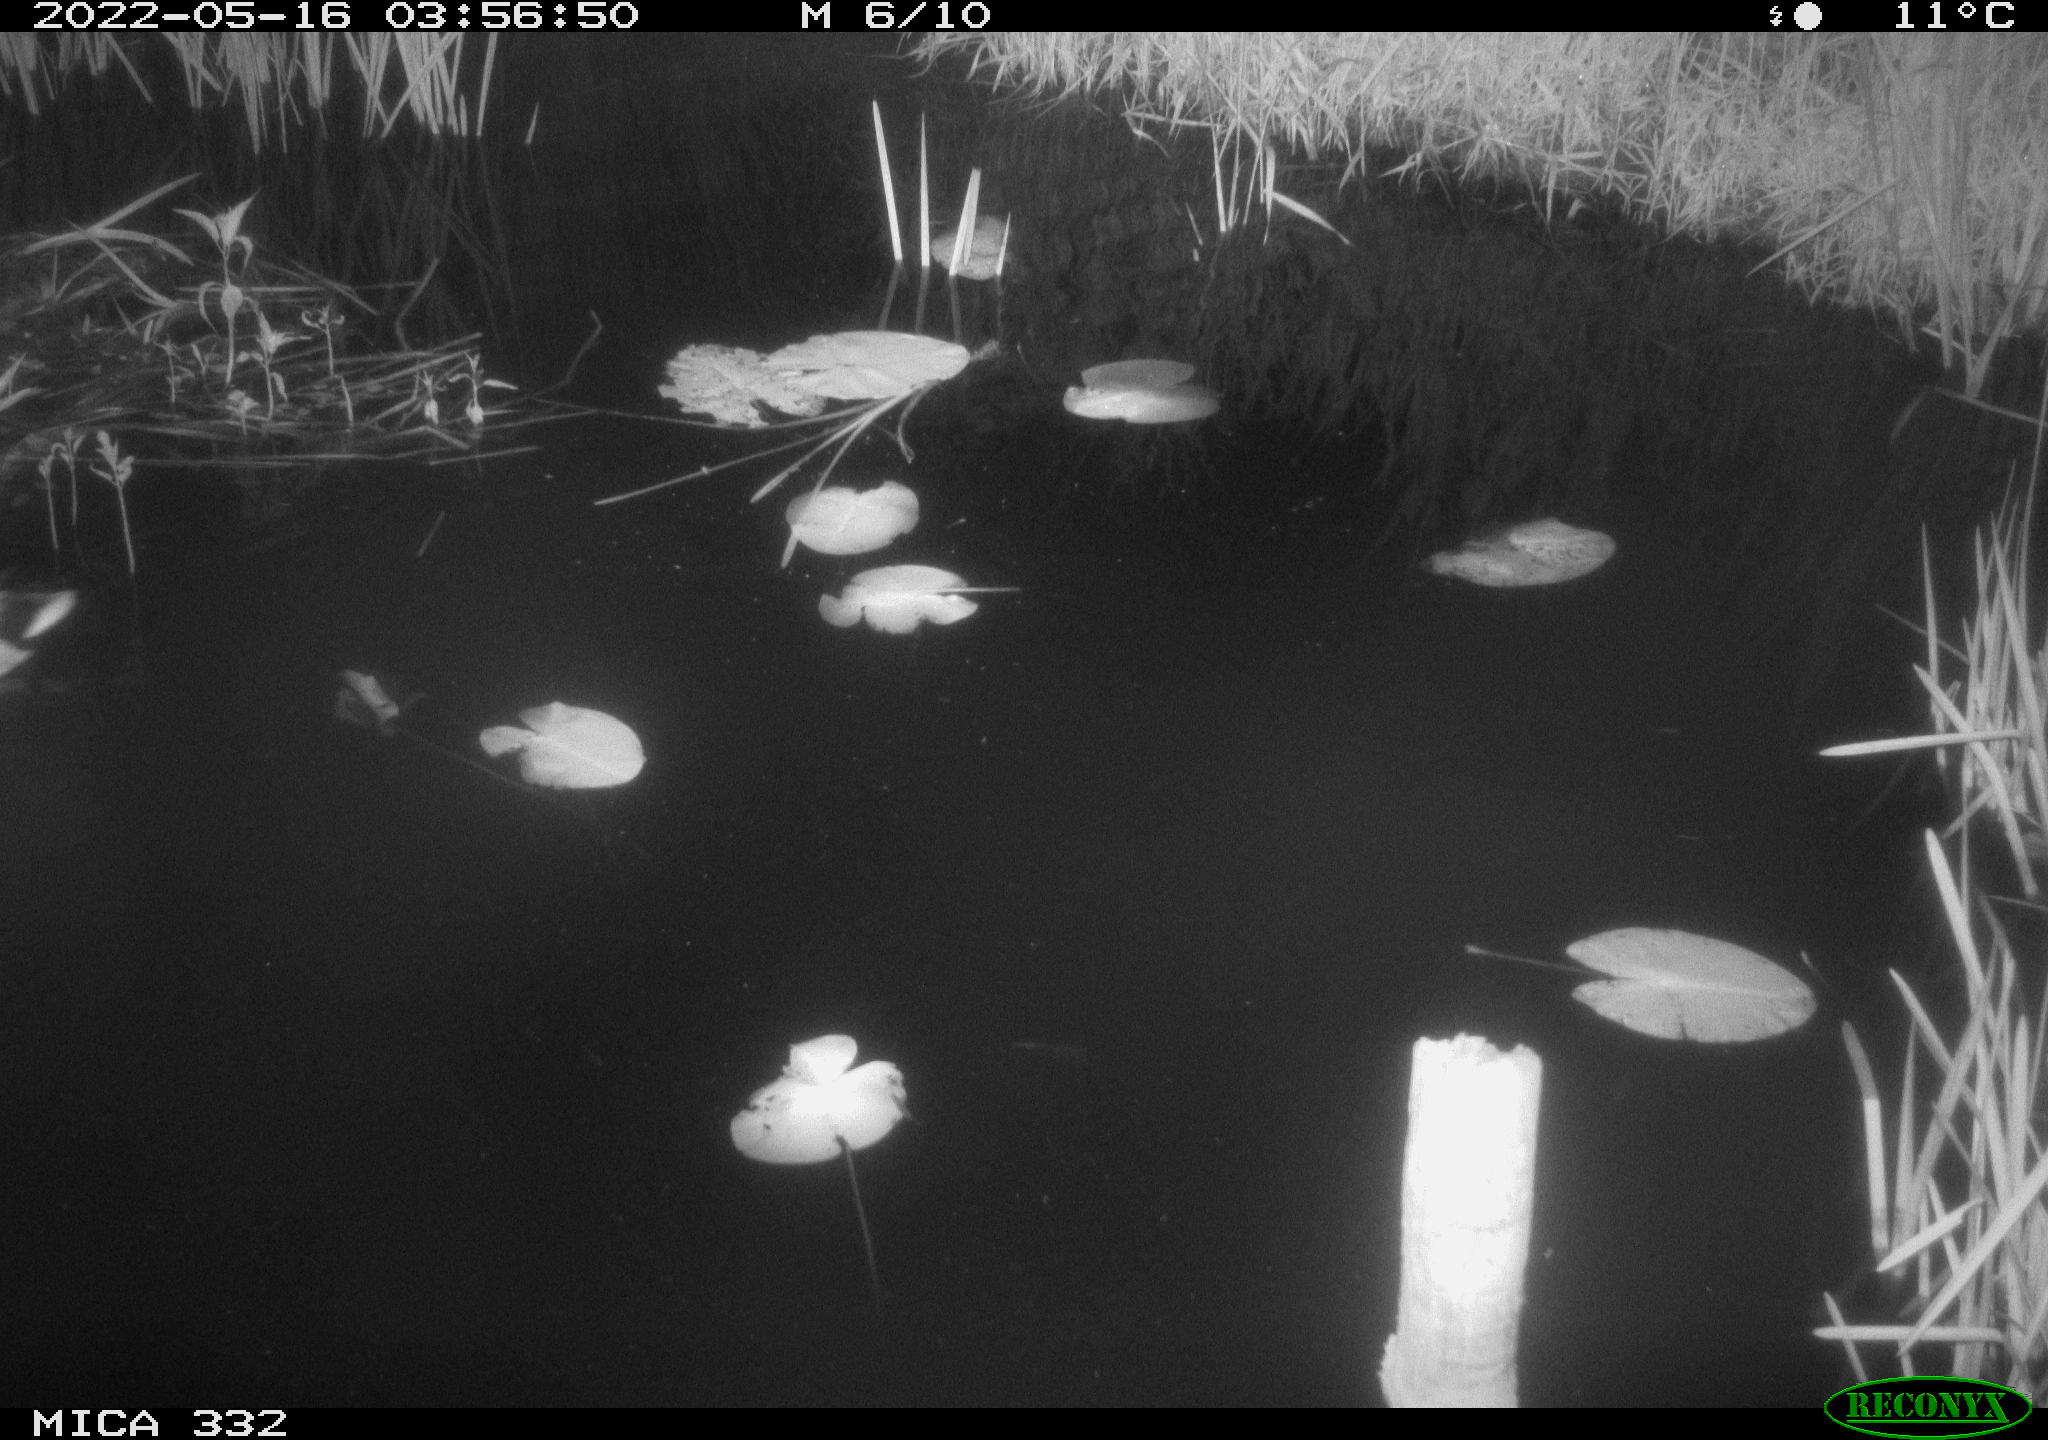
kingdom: Animalia
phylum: Chordata
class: Aves
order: Anseriformes
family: Anatidae
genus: Anas
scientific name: Anas platyrhynchos
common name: Mallard
